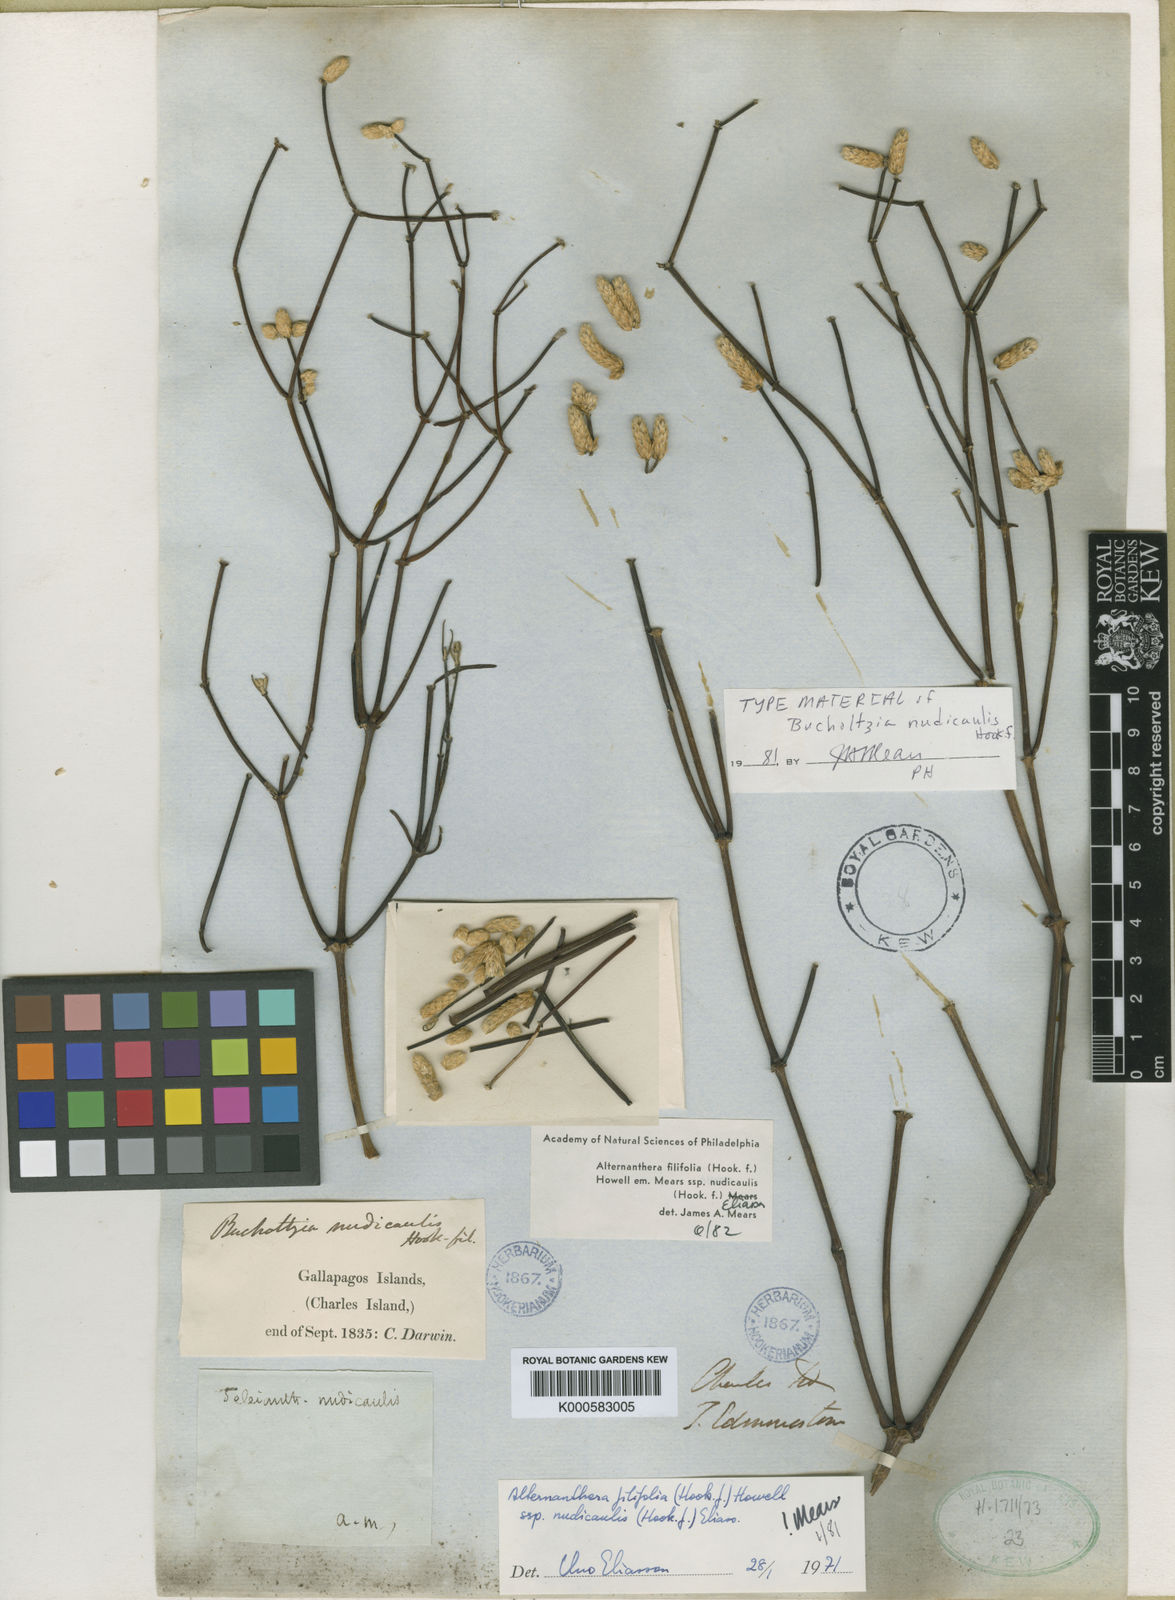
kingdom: Plantae
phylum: Tracheophyta
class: Magnoliopsida
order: Caryophyllales
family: Amaranthaceae
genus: Alternanthera
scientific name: Alternanthera filifolia
